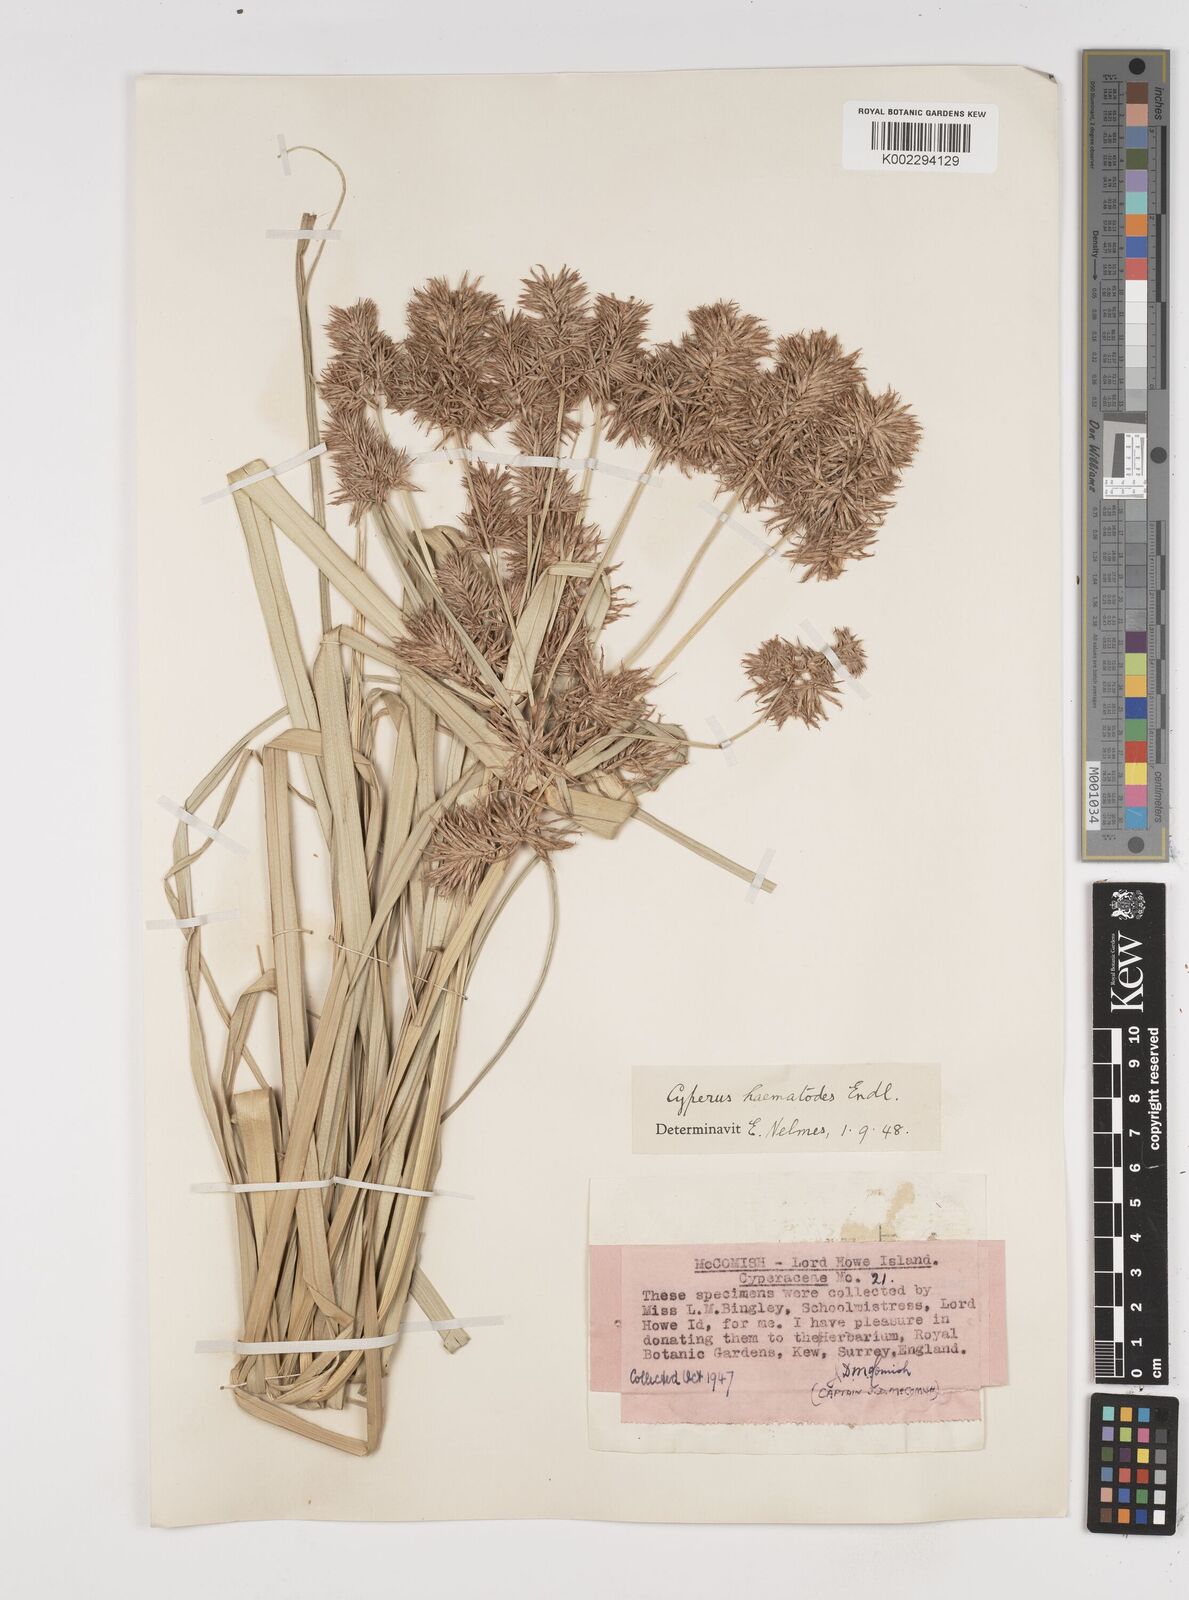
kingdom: Plantae
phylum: Tracheophyta
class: Liliopsida
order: Poales
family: Cyperaceae
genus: Cyperus
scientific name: Cyperus lucidus
